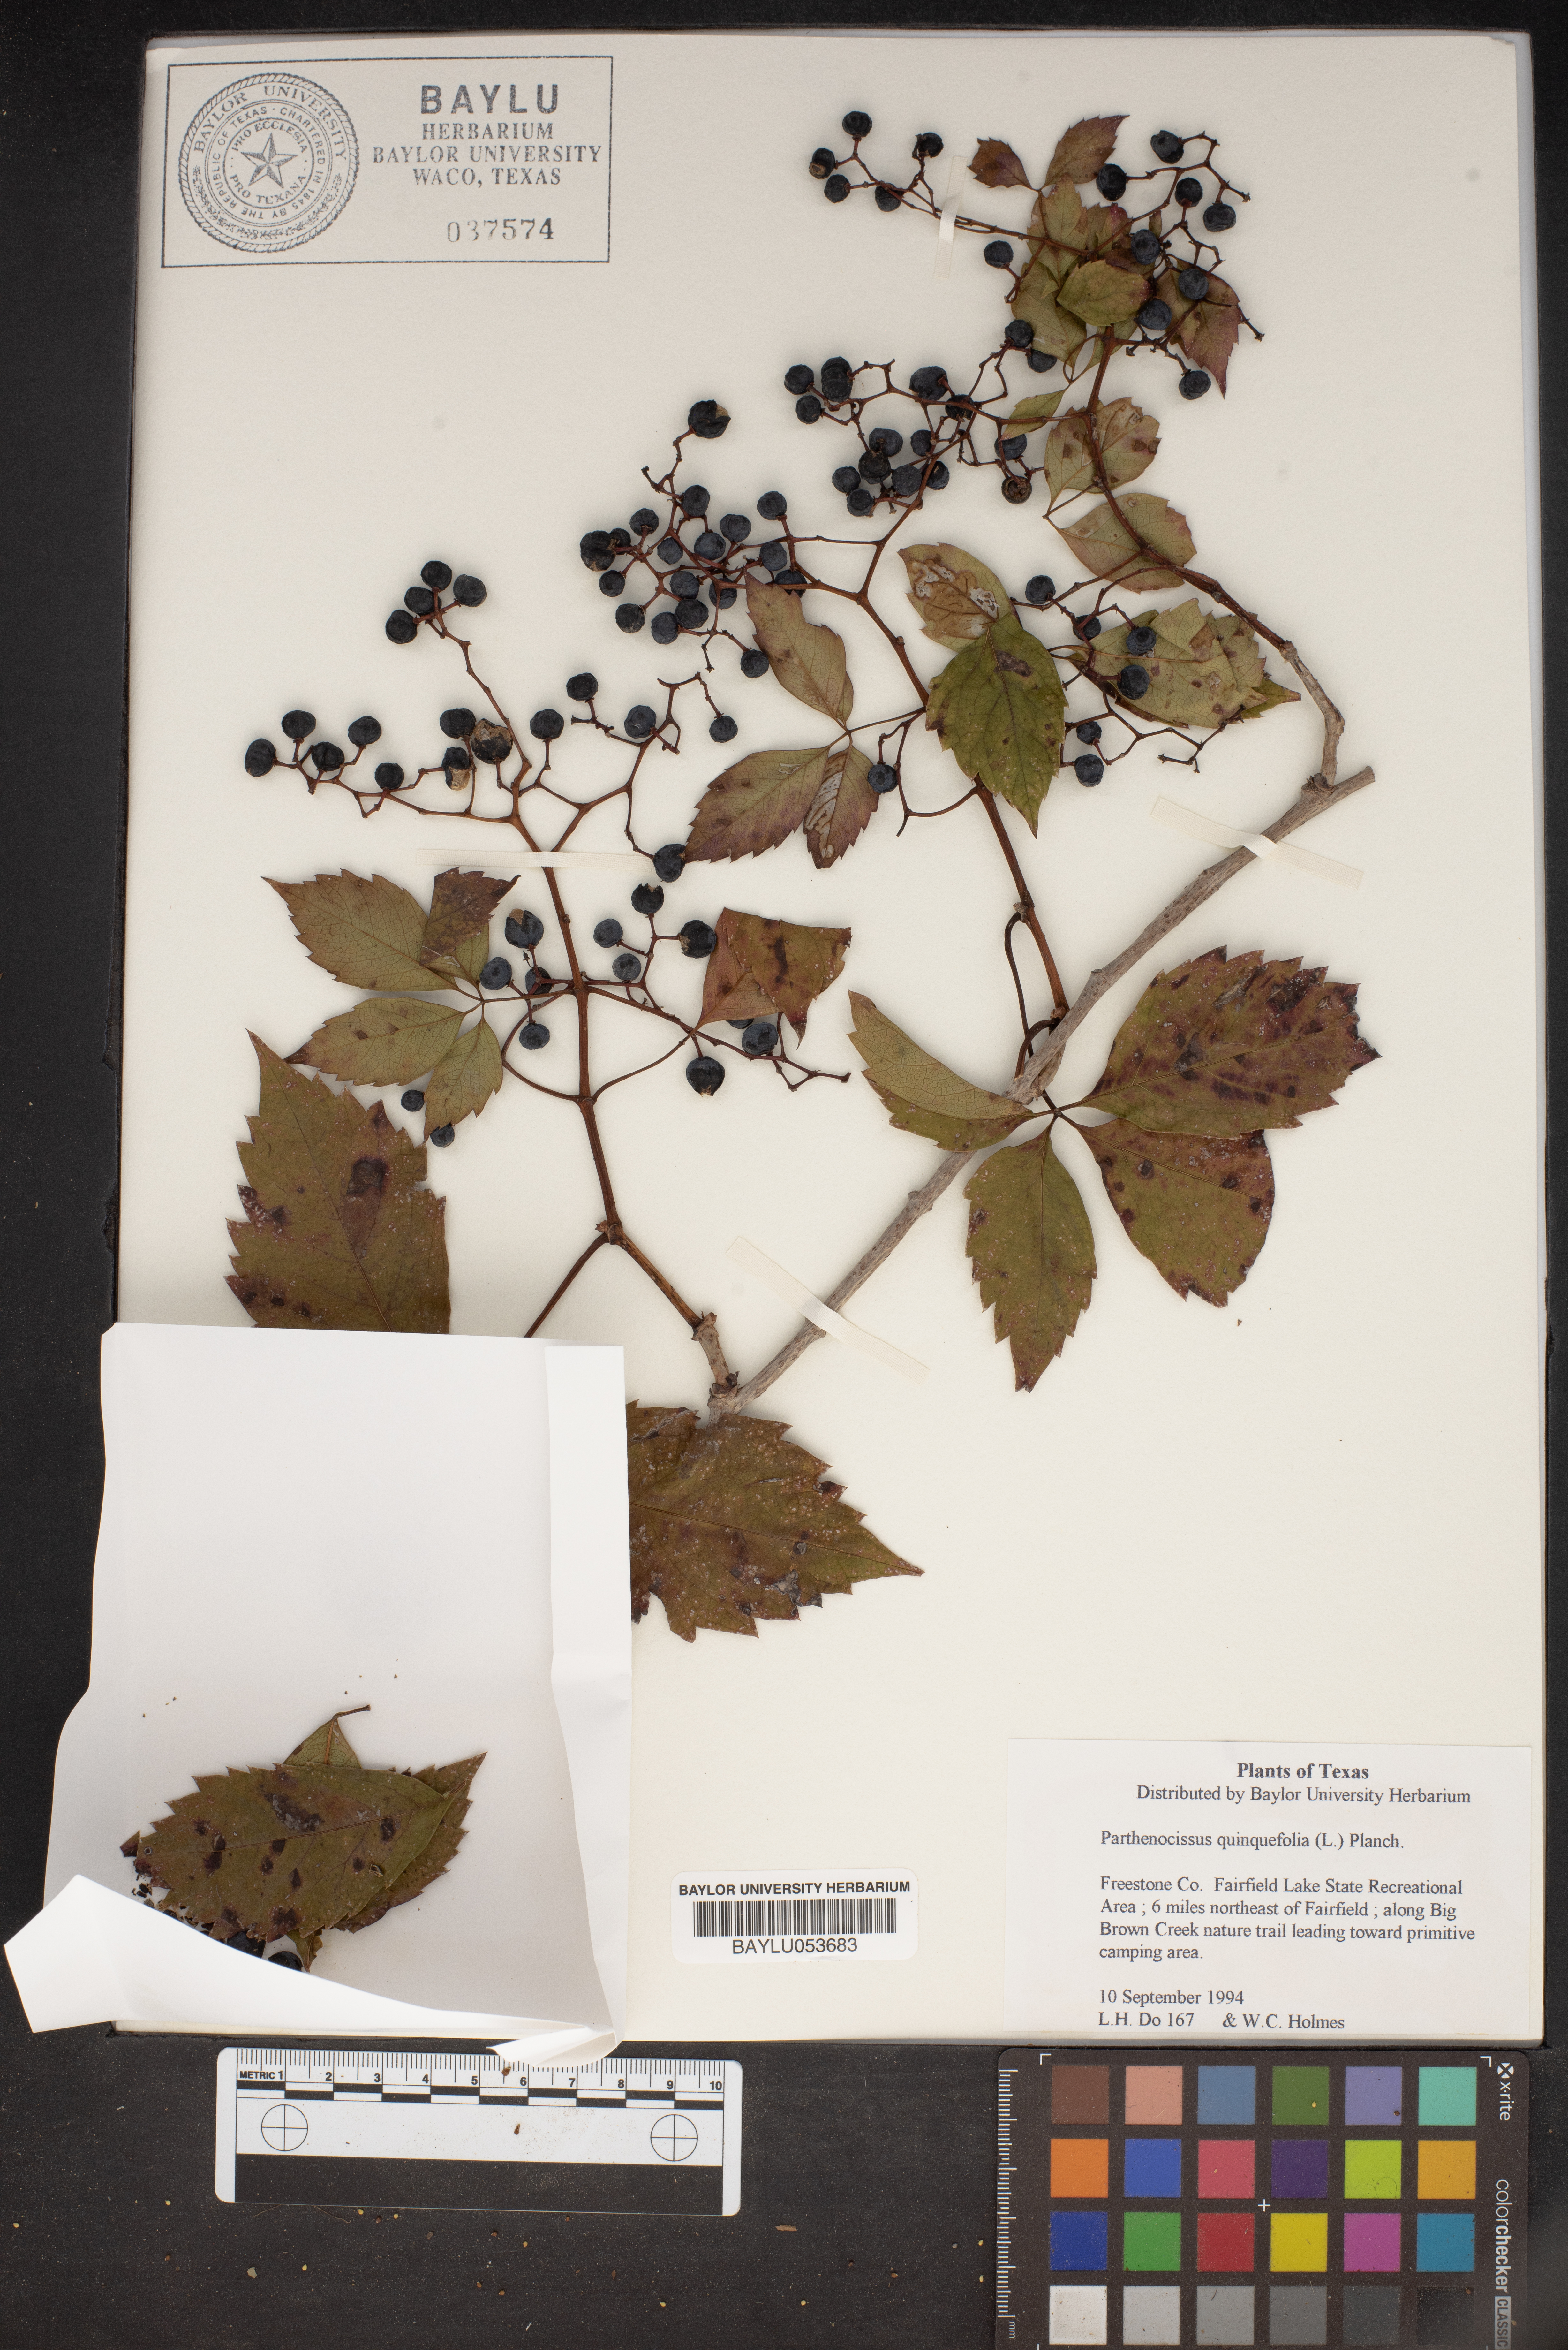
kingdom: Plantae
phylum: Tracheophyta
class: Magnoliopsida
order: Vitales
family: Vitaceae
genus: Parthenocissus
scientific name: Parthenocissus quinquefolia
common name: Virginia-creeper
